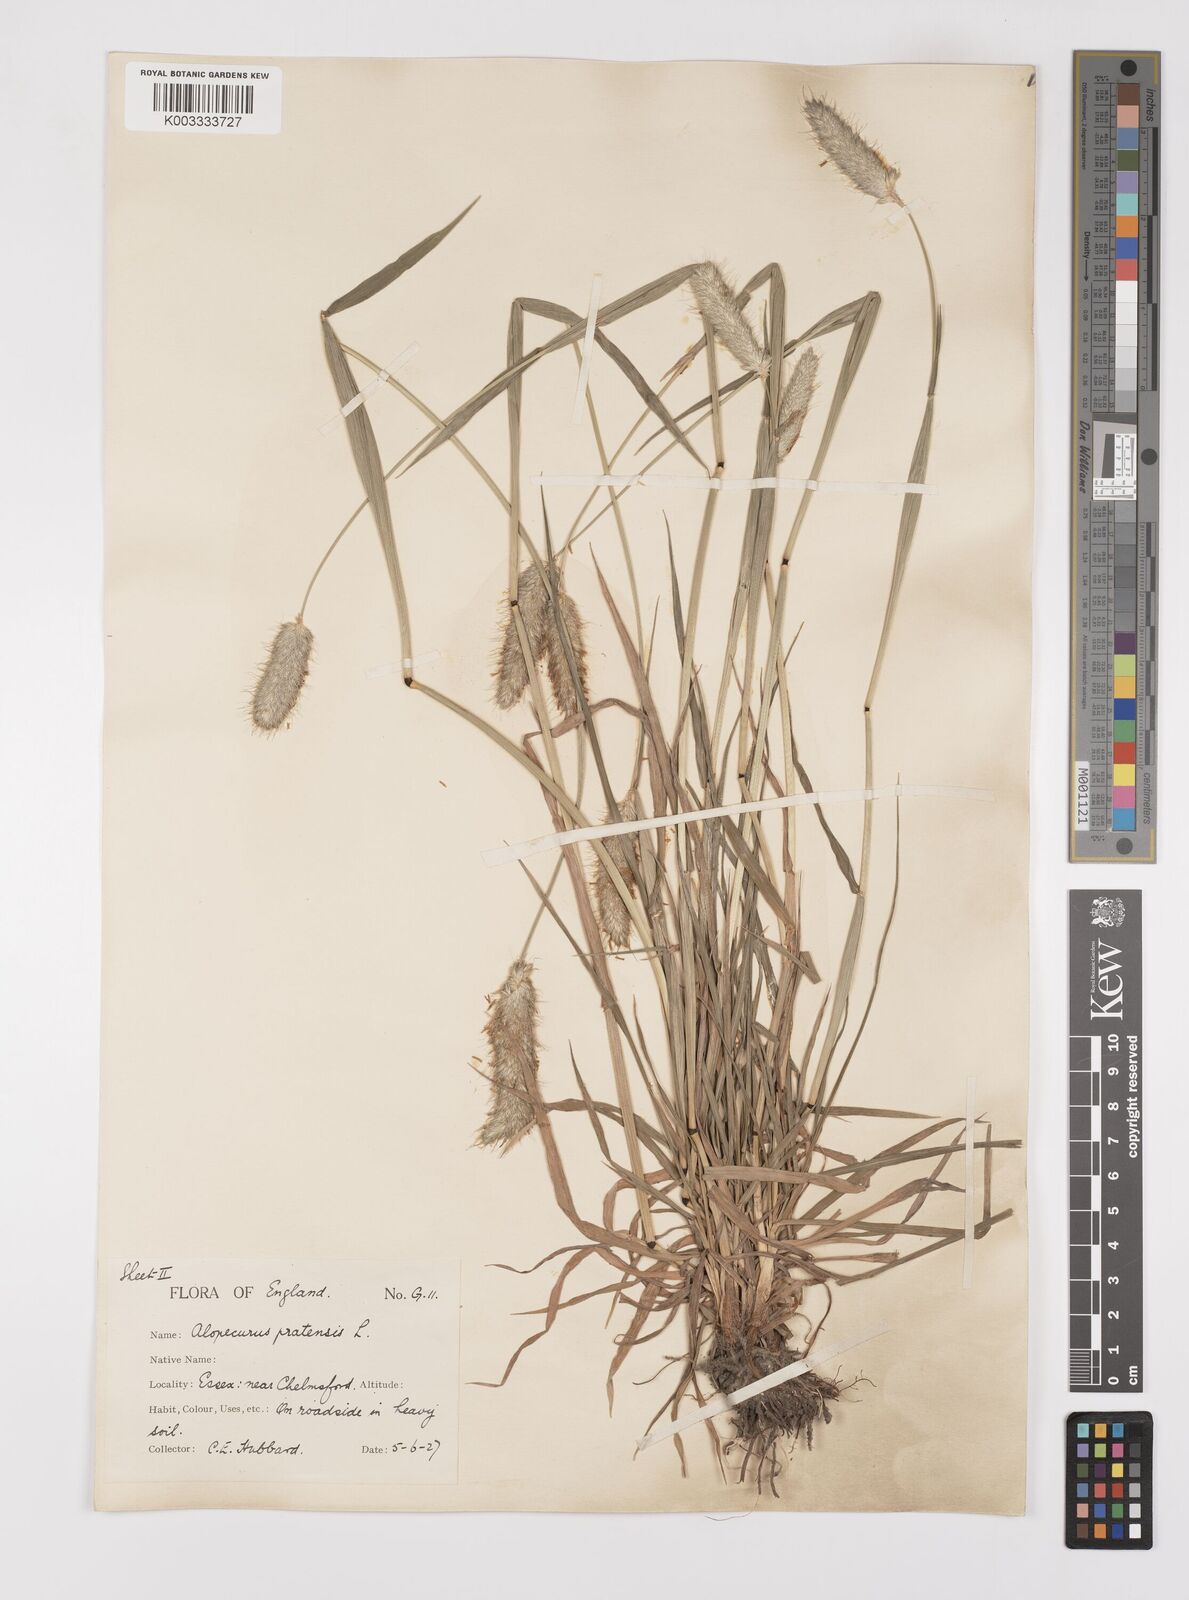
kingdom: Plantae
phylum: Tracheophyta
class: Liliopsida
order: Poales
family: Poaceae
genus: Alopecurus
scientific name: Alopecurus pratensis
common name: Meadow foxtail
